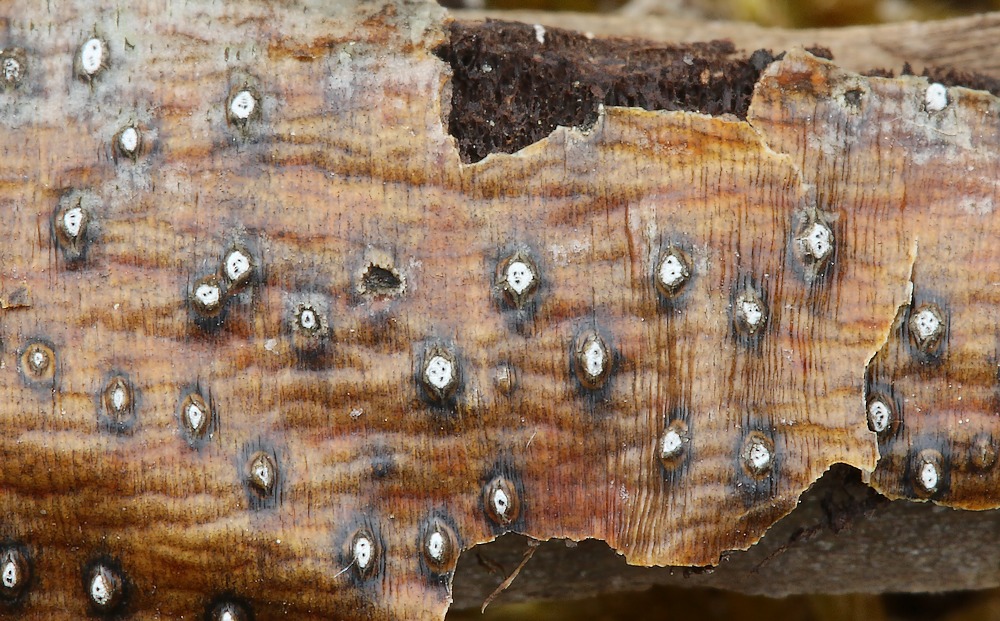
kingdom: Fungi
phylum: Ascomycota
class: Sordariomycetes
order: Diaporthales
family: Valsaceae
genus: Valsa
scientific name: Valsa
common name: kulknippe
